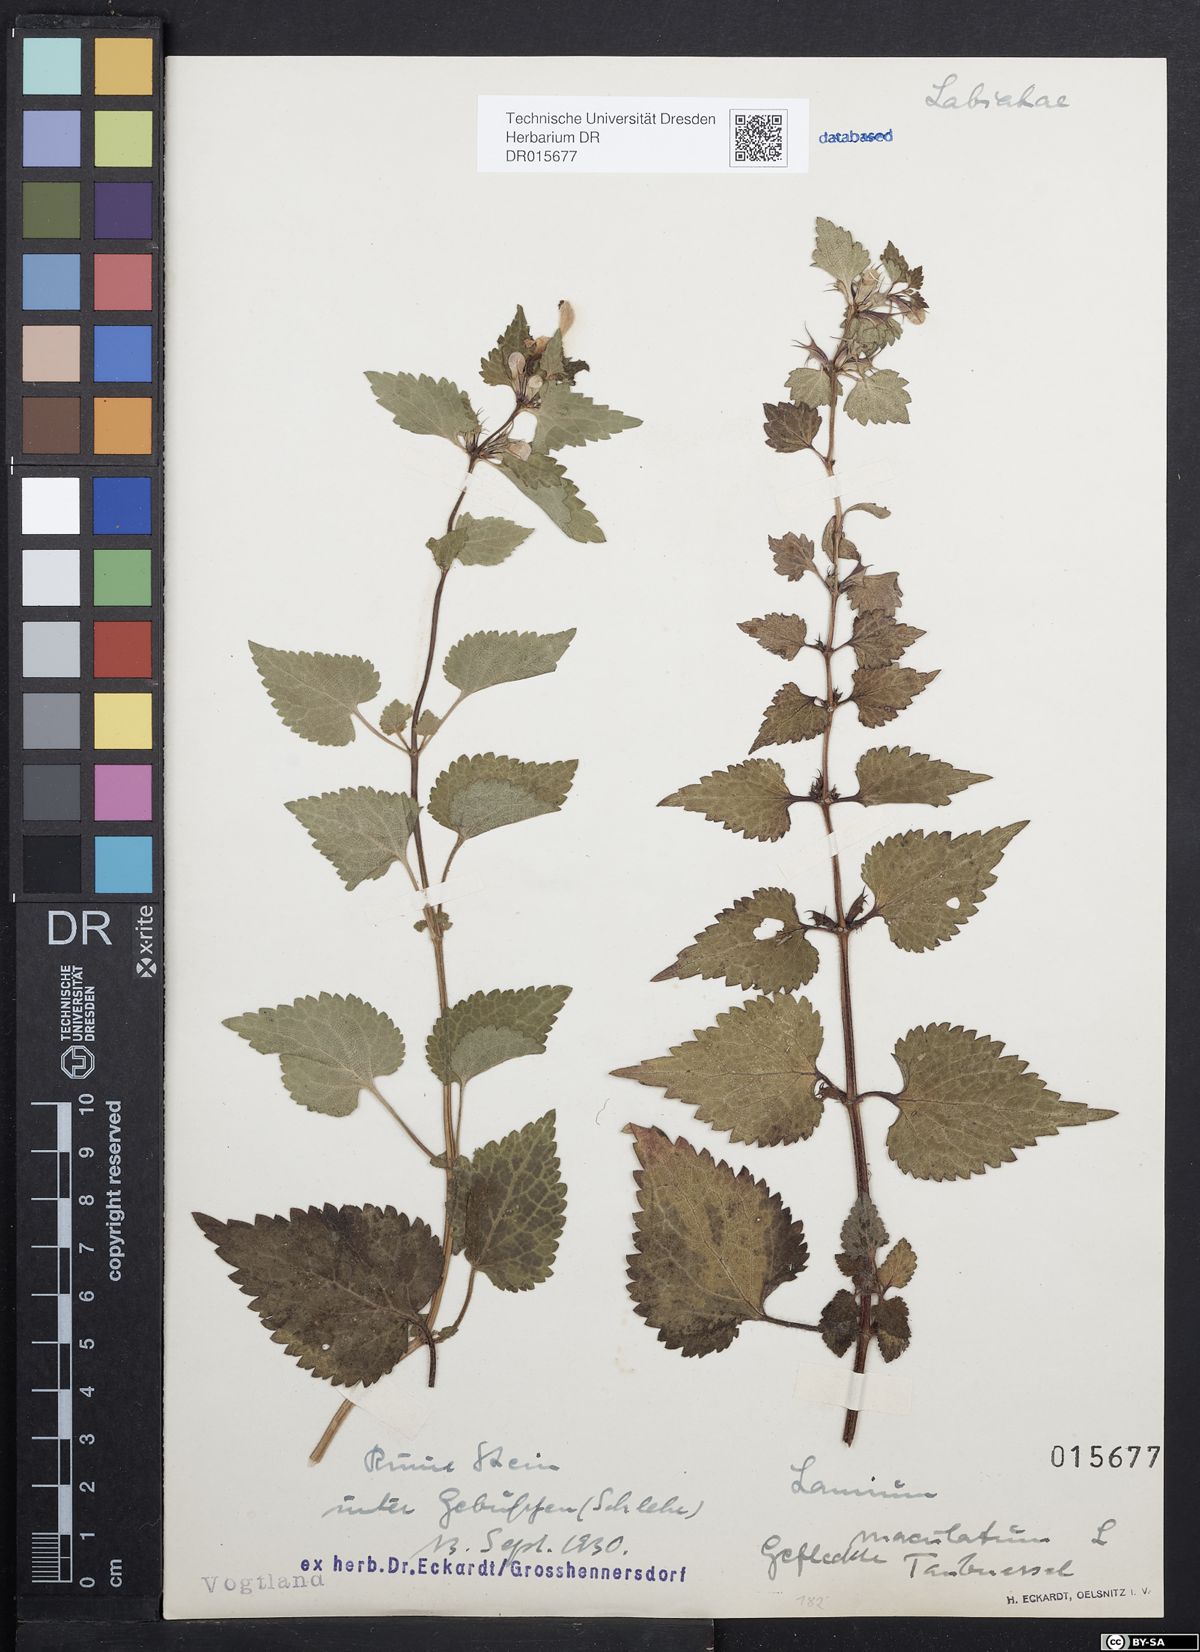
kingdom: Plantae
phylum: Tracheophyta
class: Magnoliopsida
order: Lamiales
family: Lamiaceae
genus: Lamium
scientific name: Lamium maculatum
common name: Spotted dead-nettle
